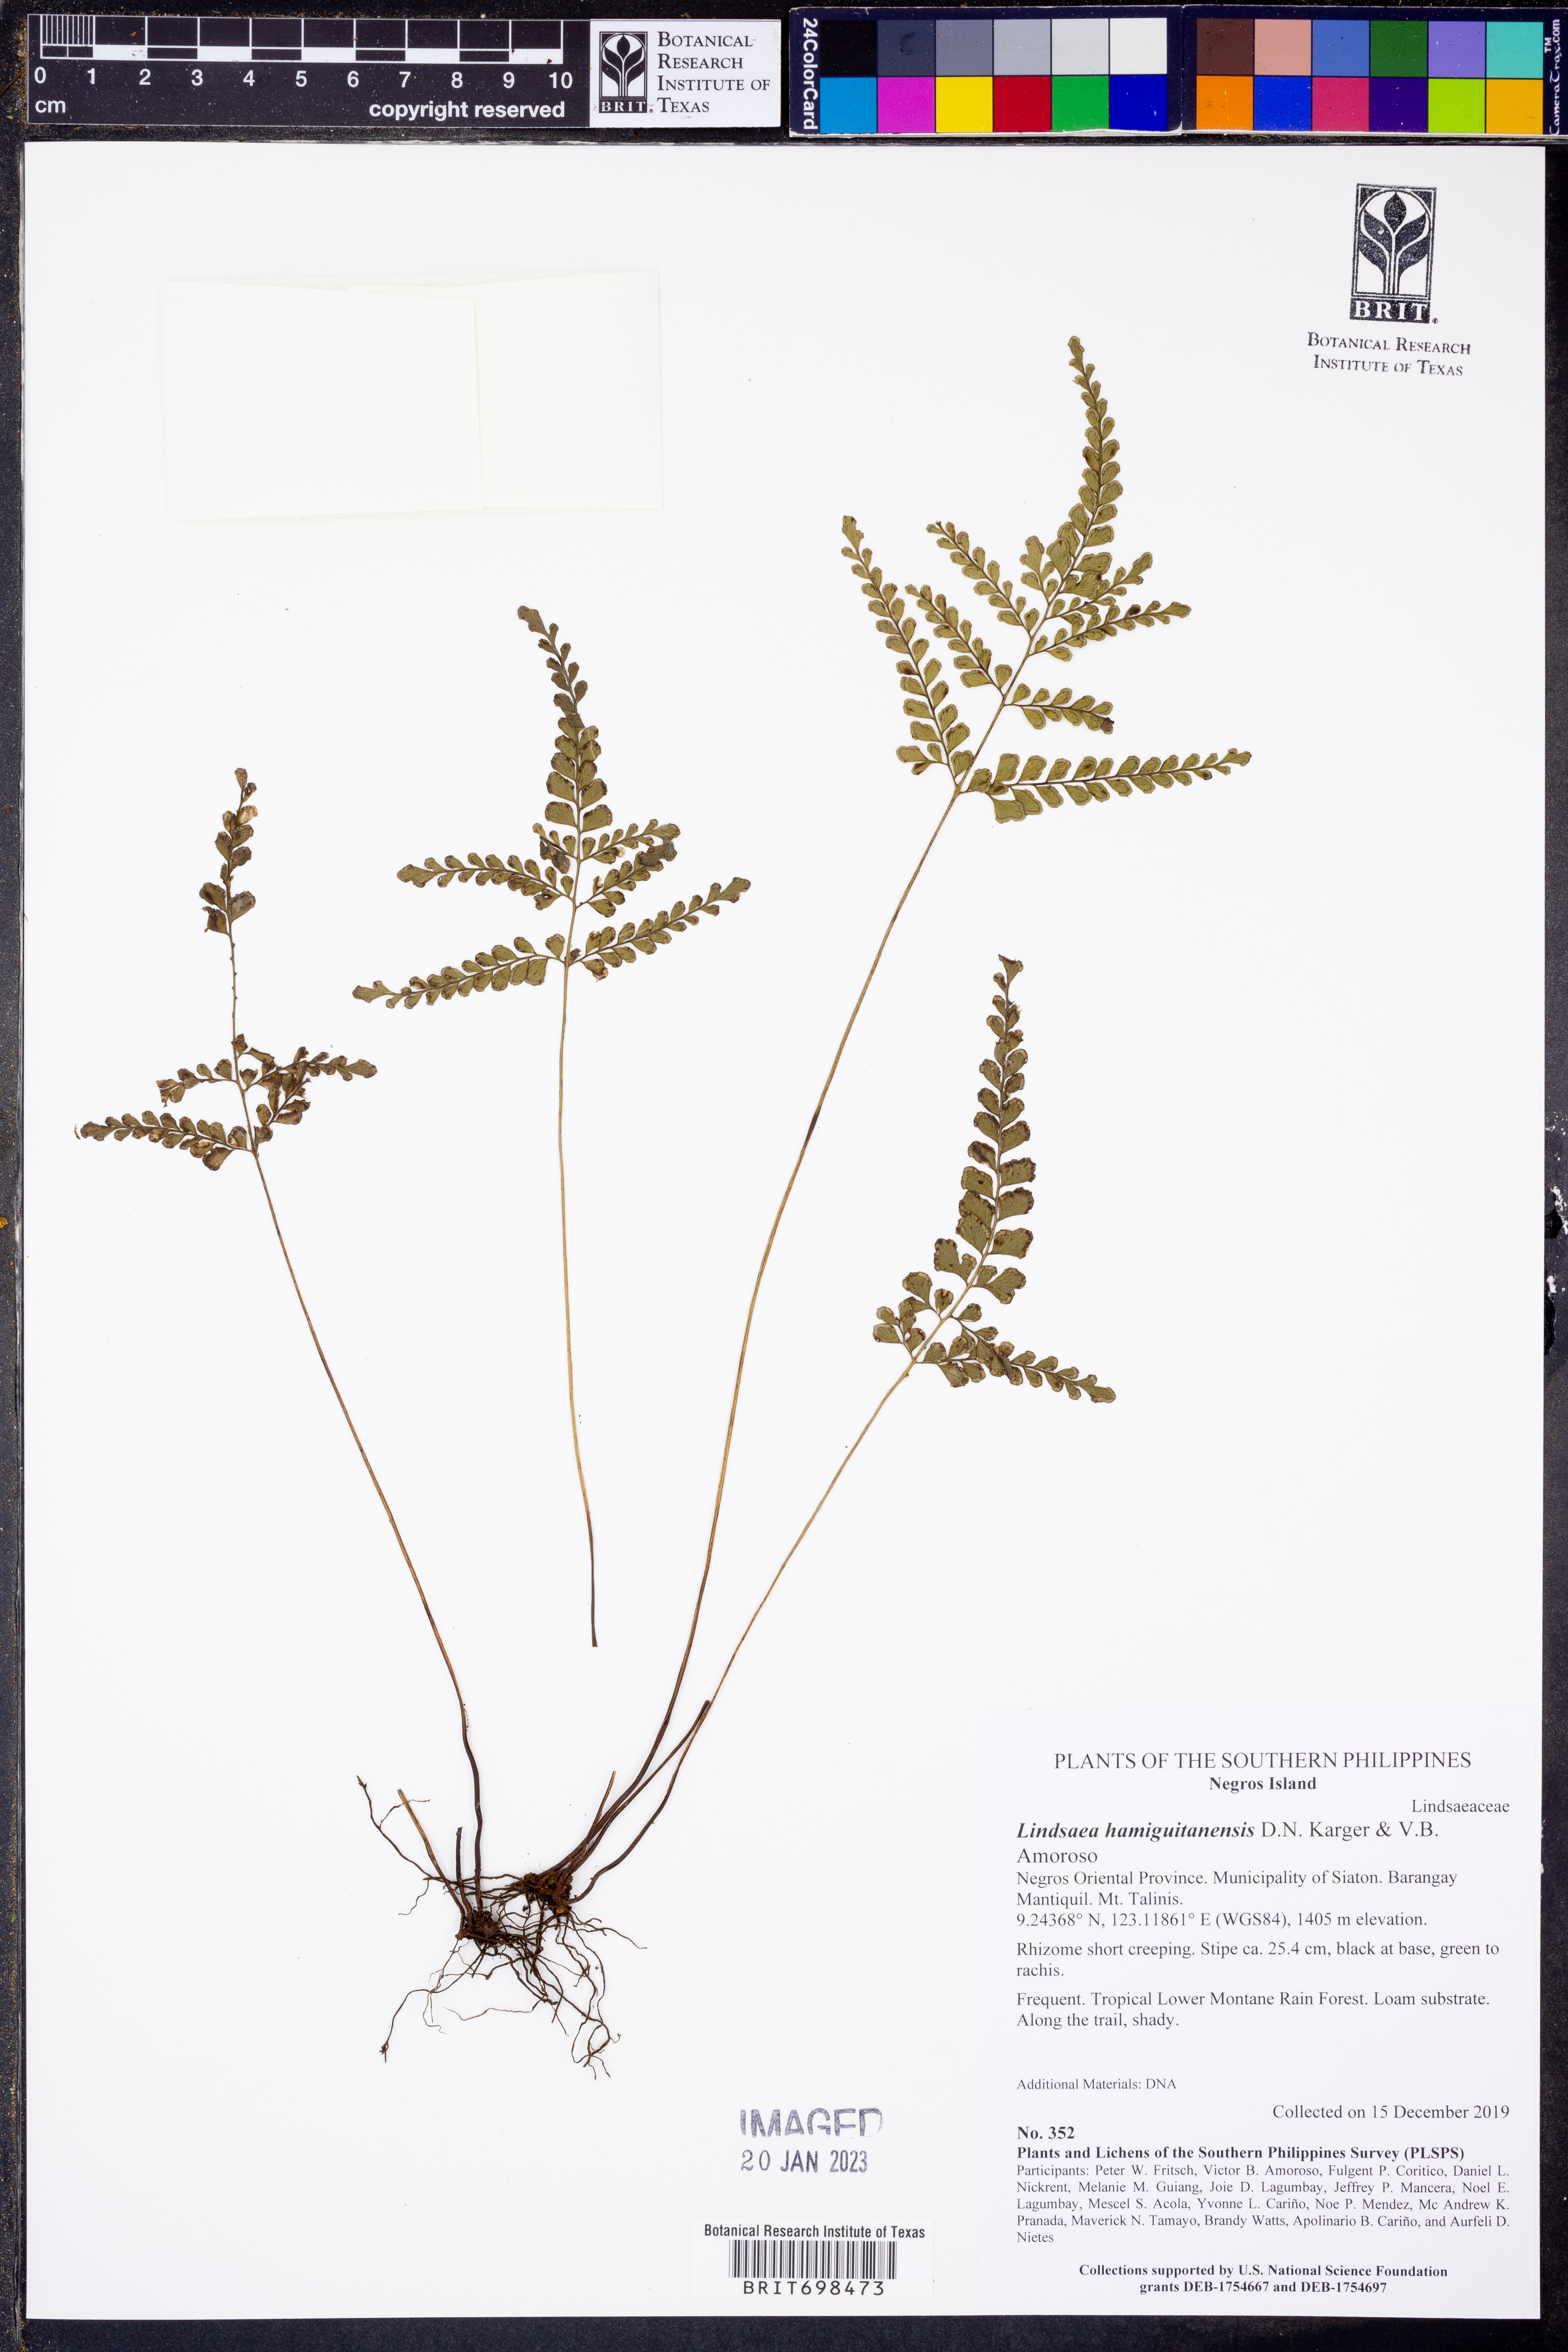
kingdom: Plantae
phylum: Tracheophyta
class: Polypodiopsida
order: Polypodiales
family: Lindsaeaceae
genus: Lindsaea
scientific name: Lindsaea hamiguitanensis
